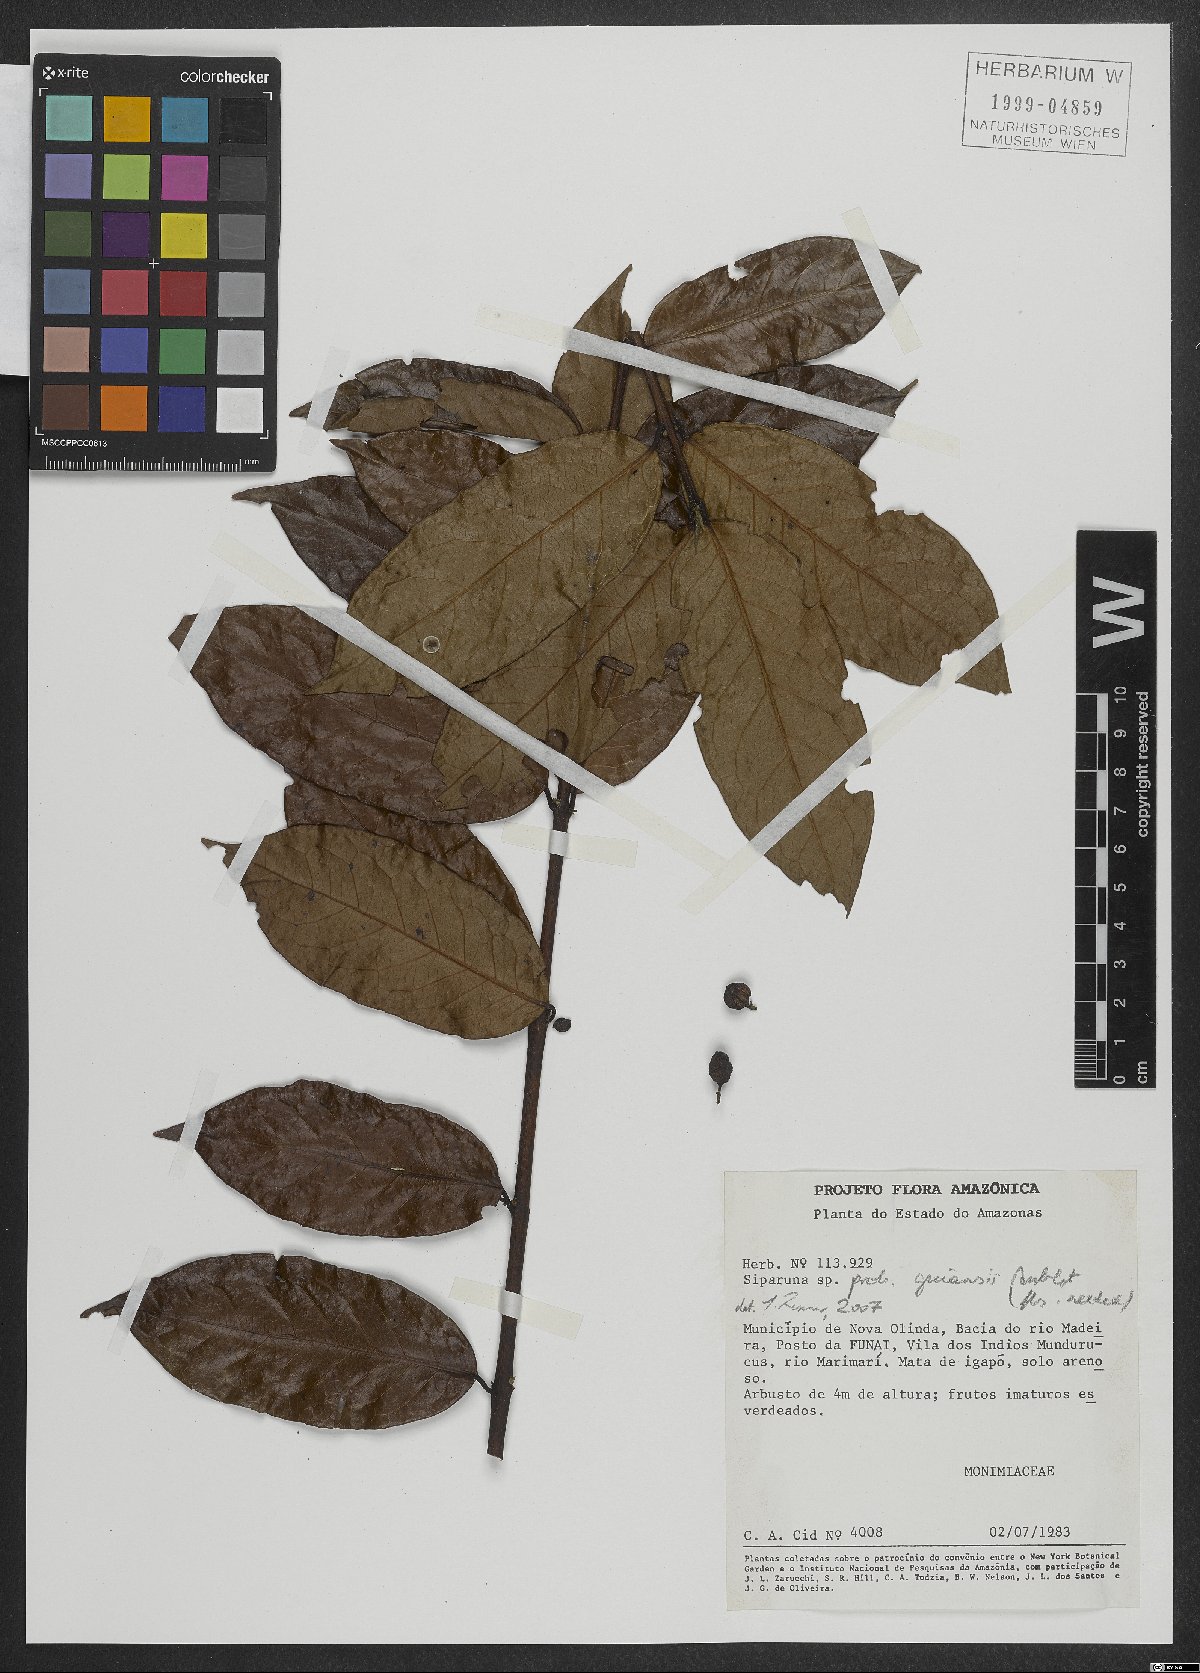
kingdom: Plantae
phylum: Tracheophyta
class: Magnoliopsida
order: Laurales
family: Siparunaceae
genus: Siparuna
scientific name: Siparuna guianensis
